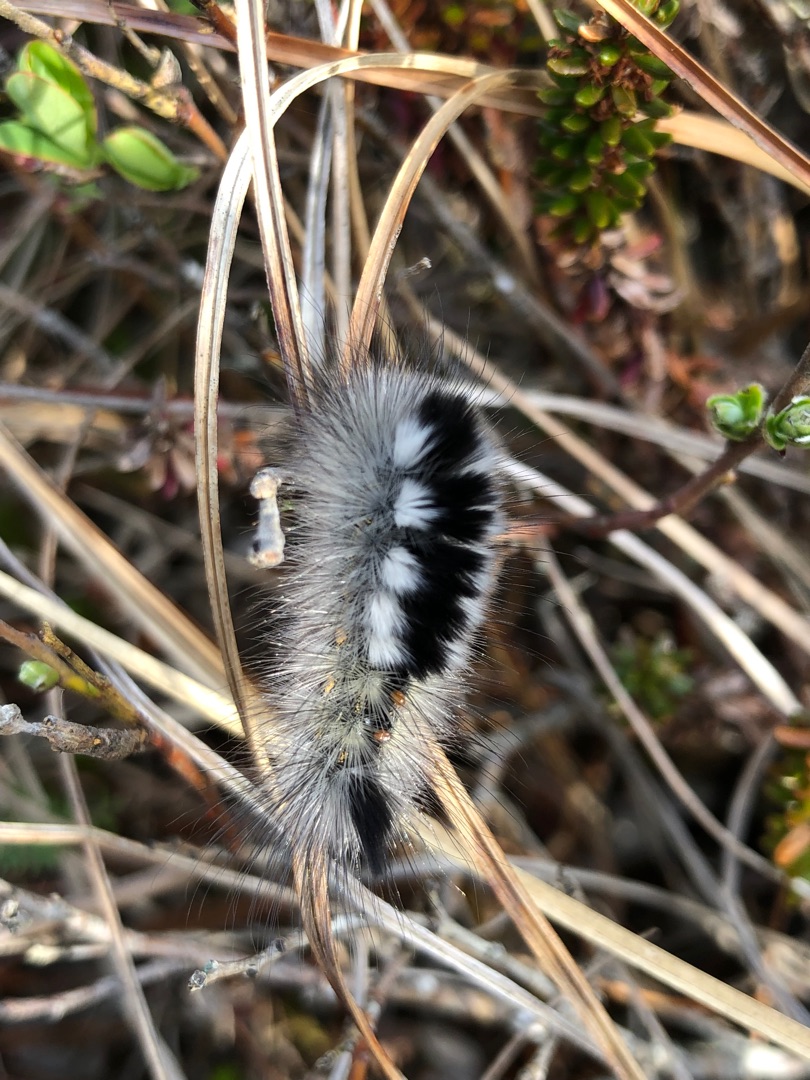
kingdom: Animalia
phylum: Arthropoda
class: Insecta
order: Lepidoptera
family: Erebidae
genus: Calliteara
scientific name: Calliteara Dicallomera fascelina
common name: Hedenonne
